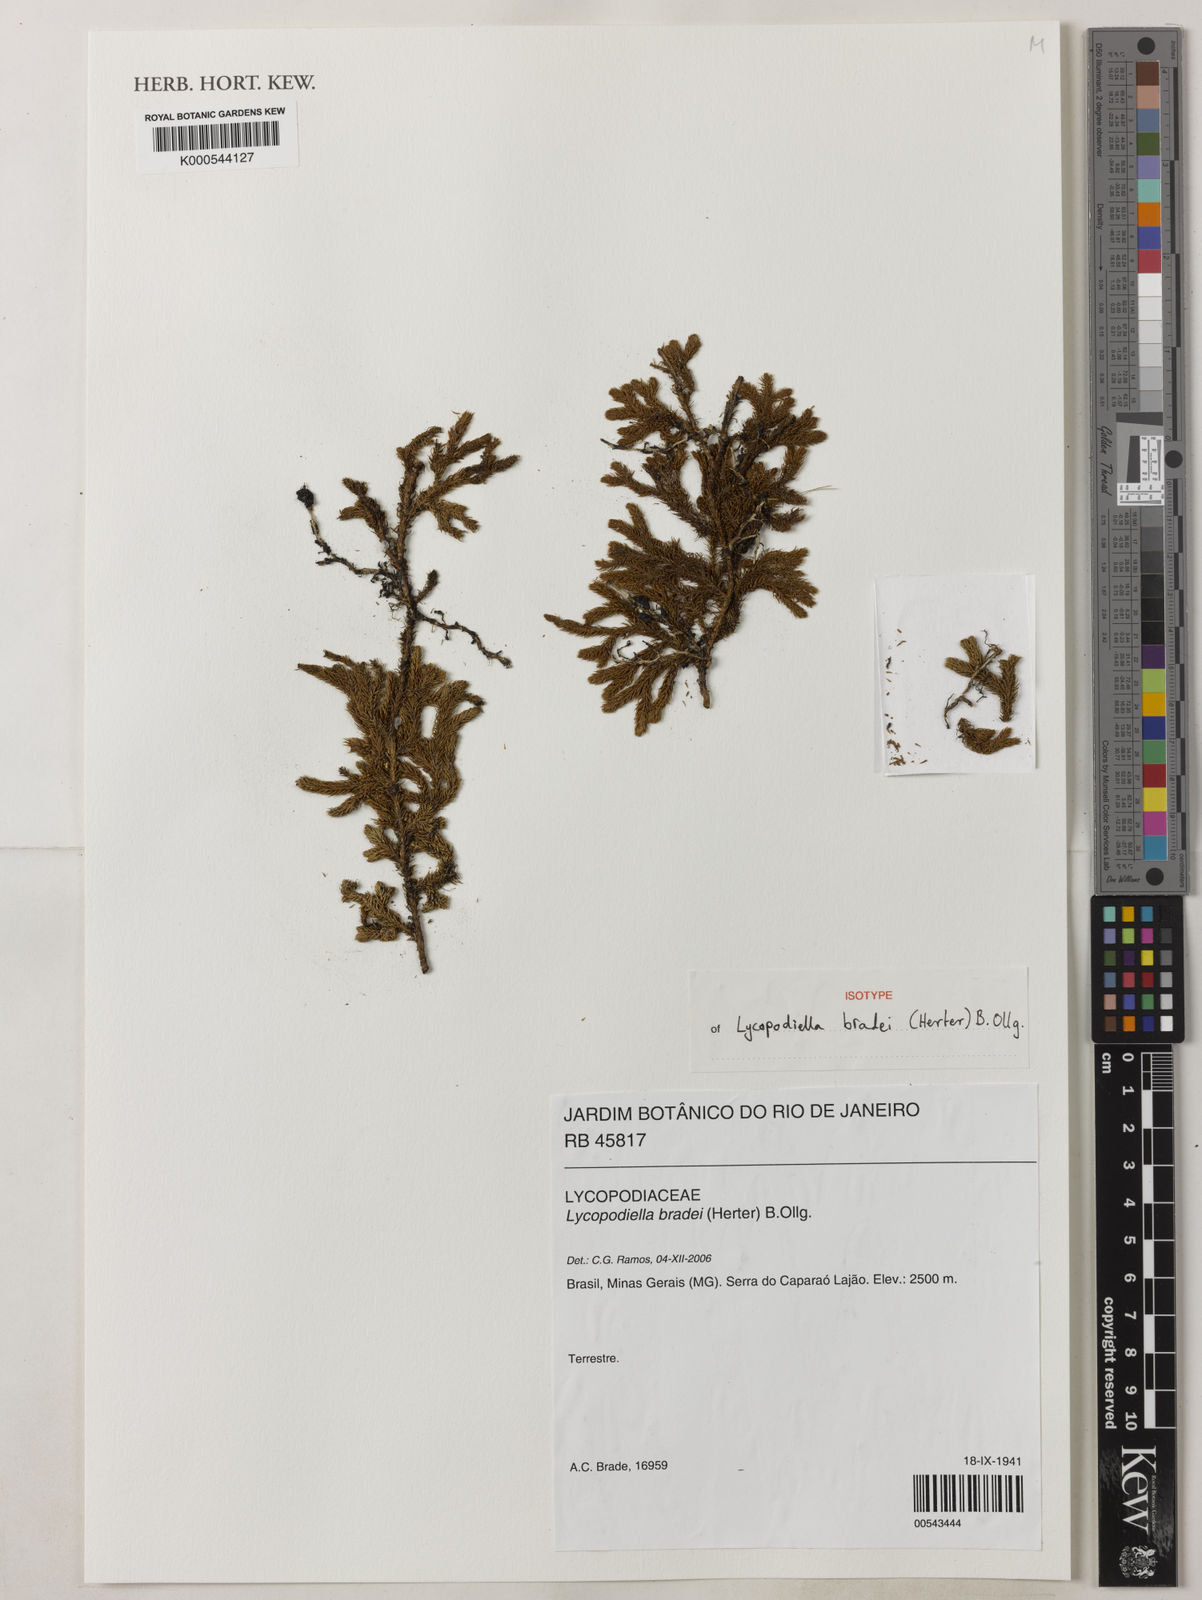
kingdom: Plantae
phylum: Tracheophyta
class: Lycopodiopsida
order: Lycopodiales
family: Lycopodiaceae
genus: Lycopodiella
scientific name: Lycopodiella
